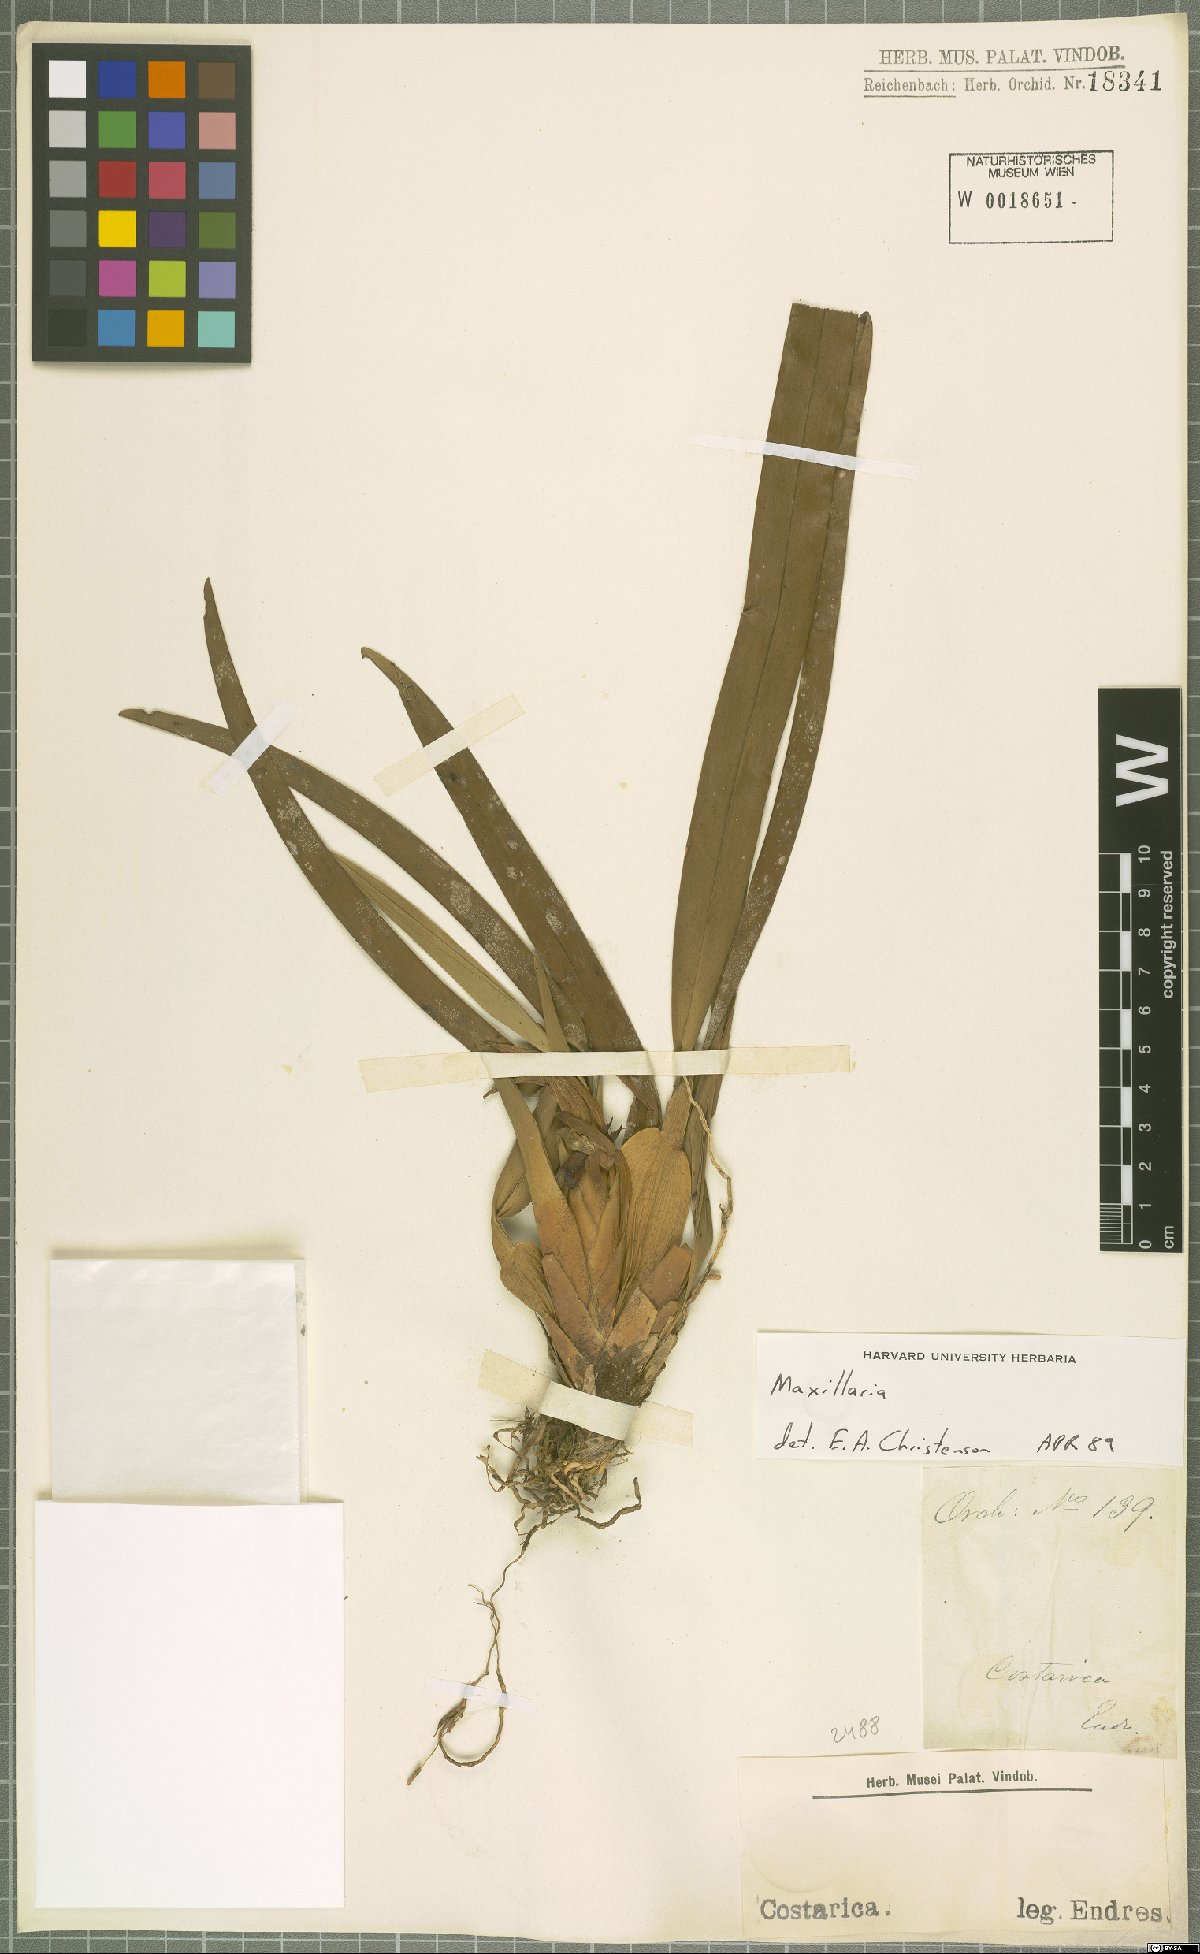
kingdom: Plantae
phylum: Tracheophyta
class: Liliopsida
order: Asparagales
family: Orchidaceae
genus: Maxillaria
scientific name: Maxillaria
